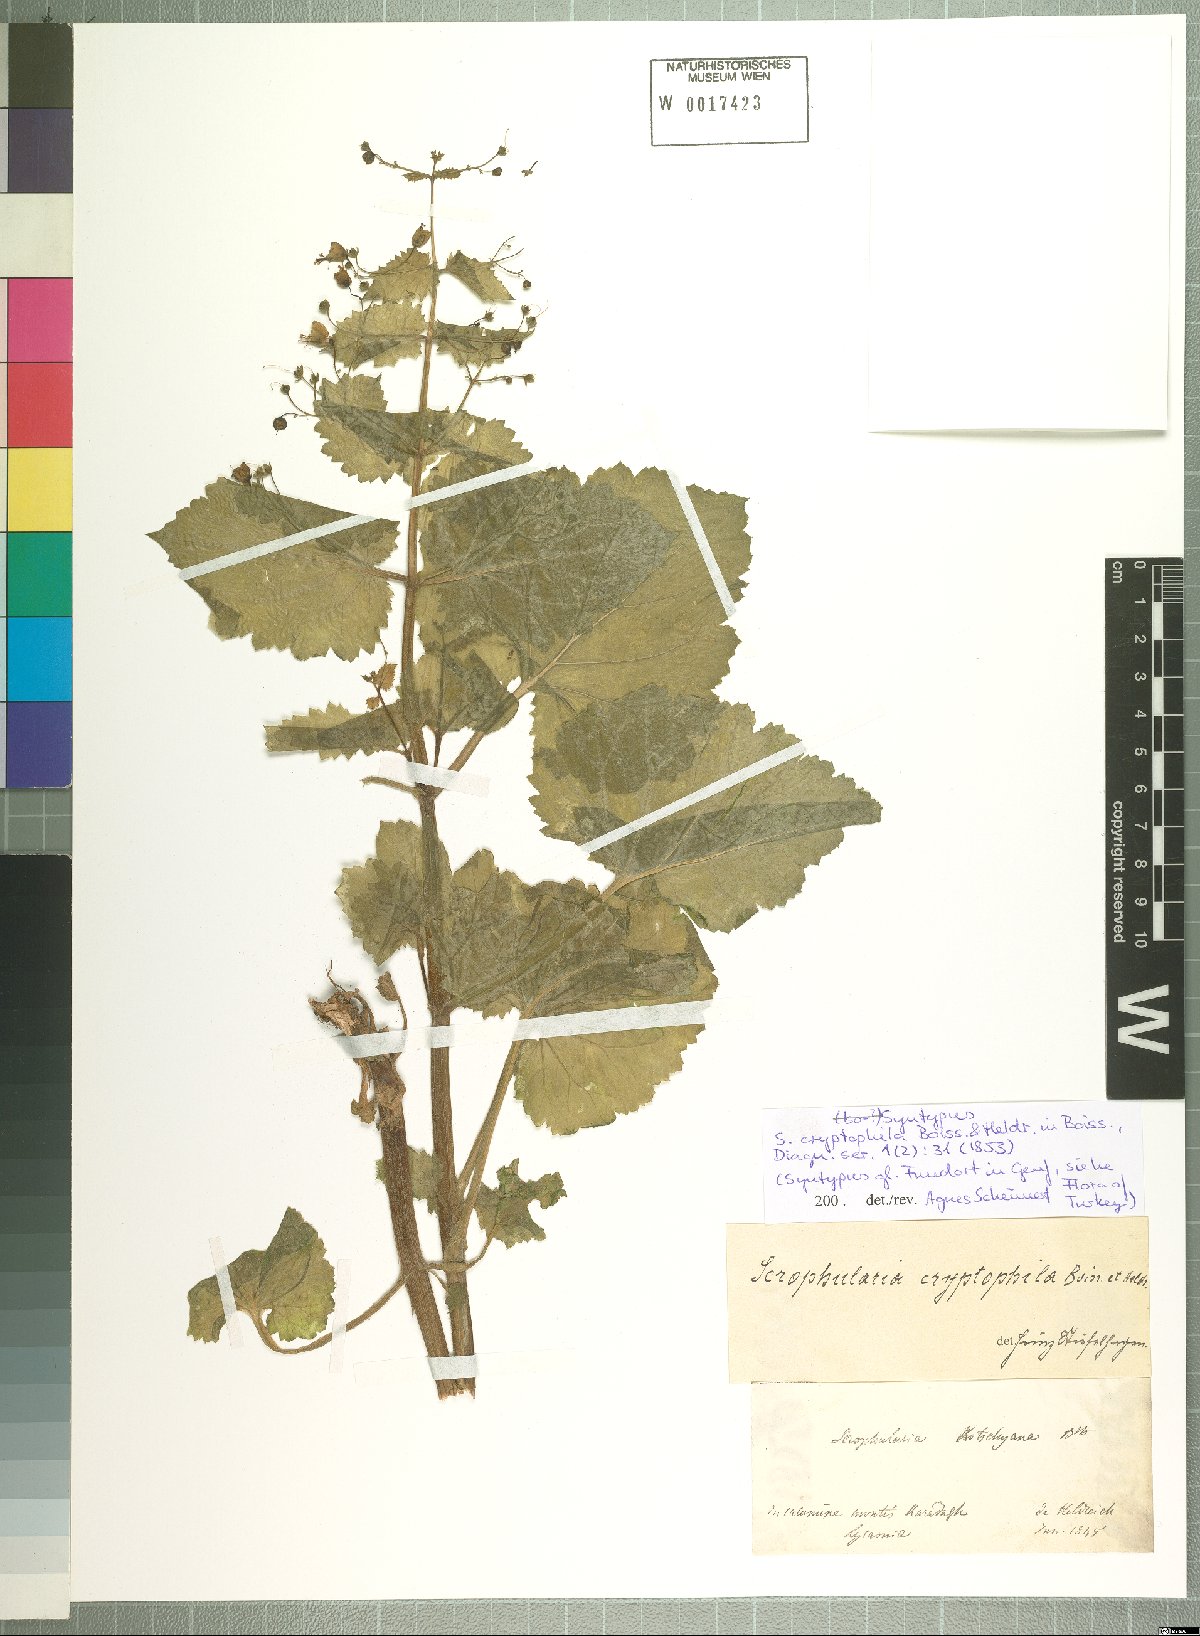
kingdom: Plantae
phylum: Tracheophyta
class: Magnoliopsida
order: Lamiales
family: Scrophulariaceae
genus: Scrophularia
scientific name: Scrophularia cryptophila
